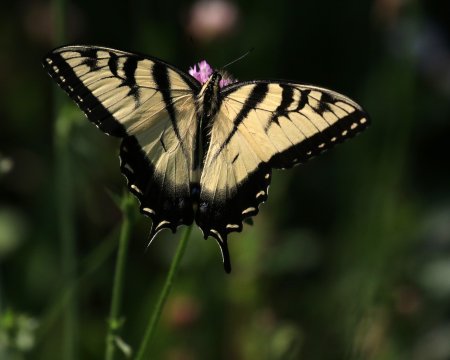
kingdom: Animalia
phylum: Arthropoda
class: Insecta
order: Lepidoptera
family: Papilionidae
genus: Pterourus
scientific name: Pterourus glaucus
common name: Eastern Tiger Swallowtail
